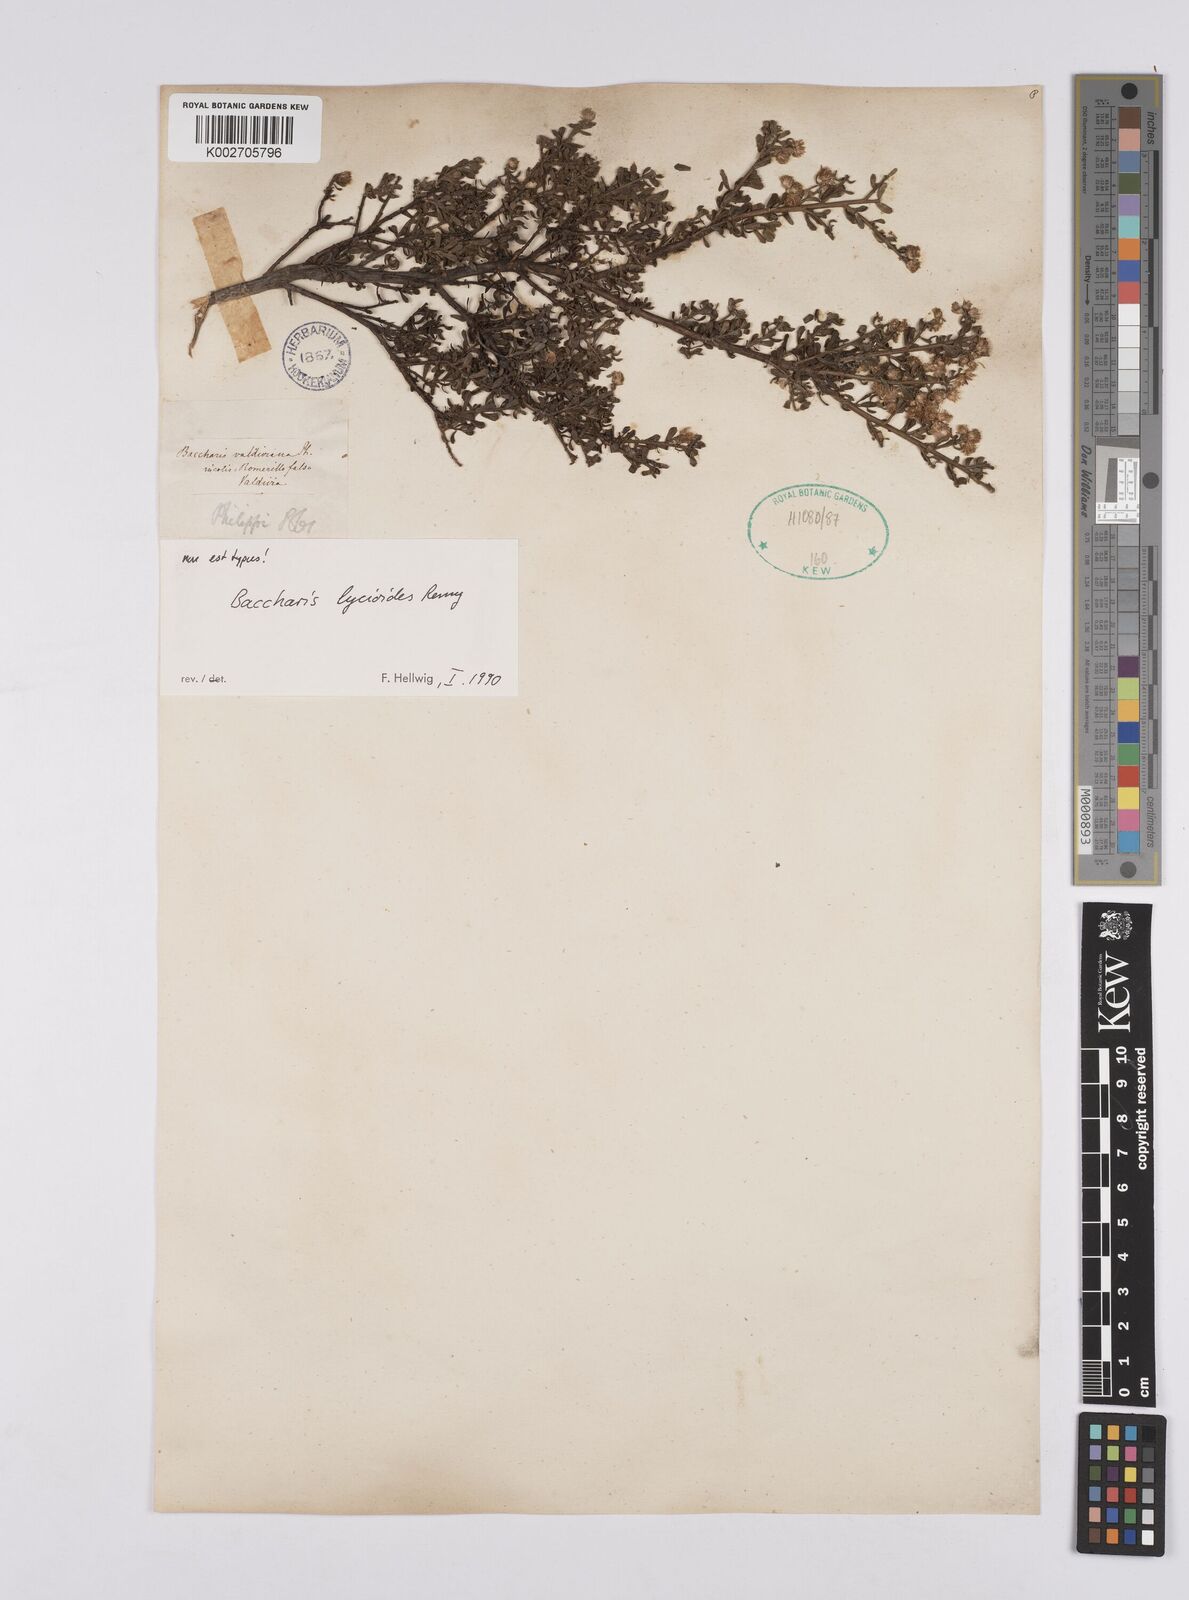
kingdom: Plantae
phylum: Tracheophyta
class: Magnoliopsida
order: Asterales
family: Asteraceae
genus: Baccharis
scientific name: Baccharis lycioides
